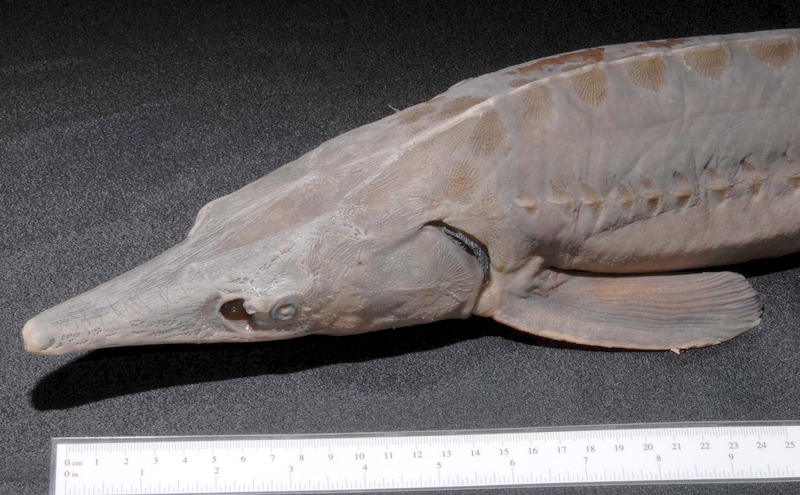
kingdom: Animalia
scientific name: Animalia
